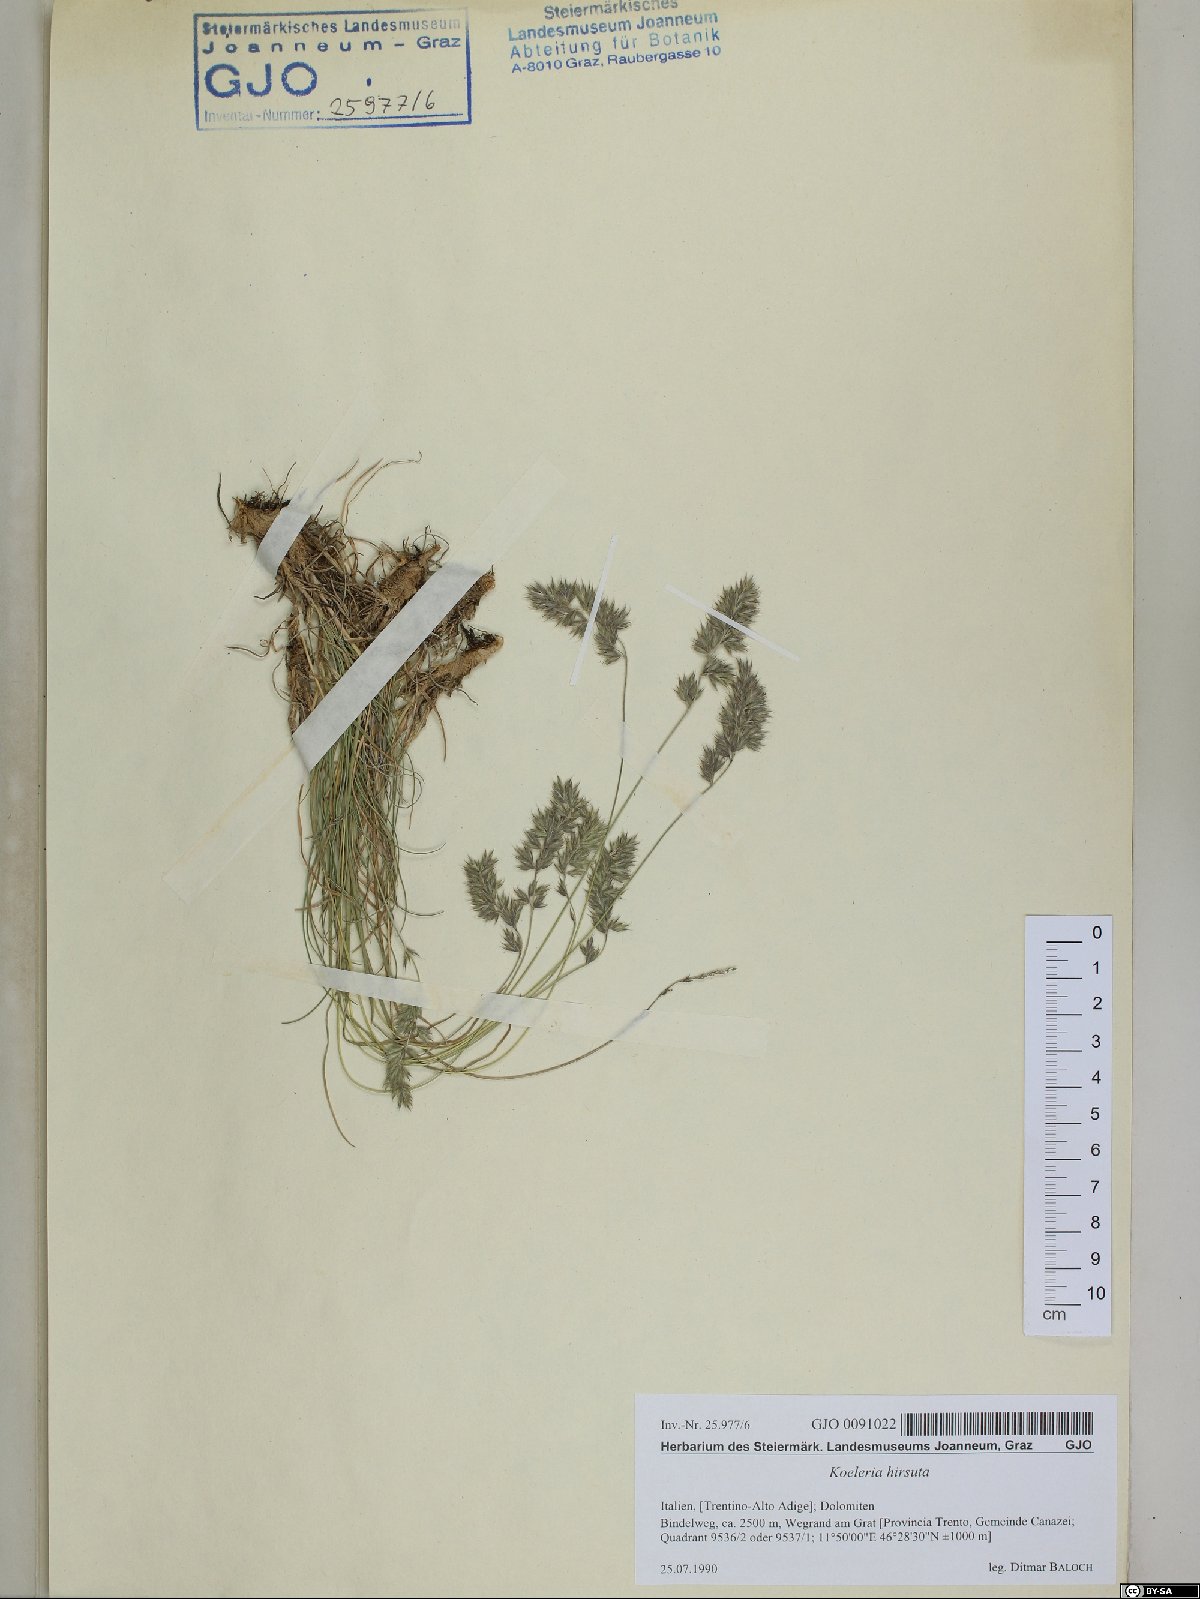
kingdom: Plantae
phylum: Tracheophyta
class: Liliopsida
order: Poales
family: Poaceae
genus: Koeleria
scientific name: Koeleria hirsuta
